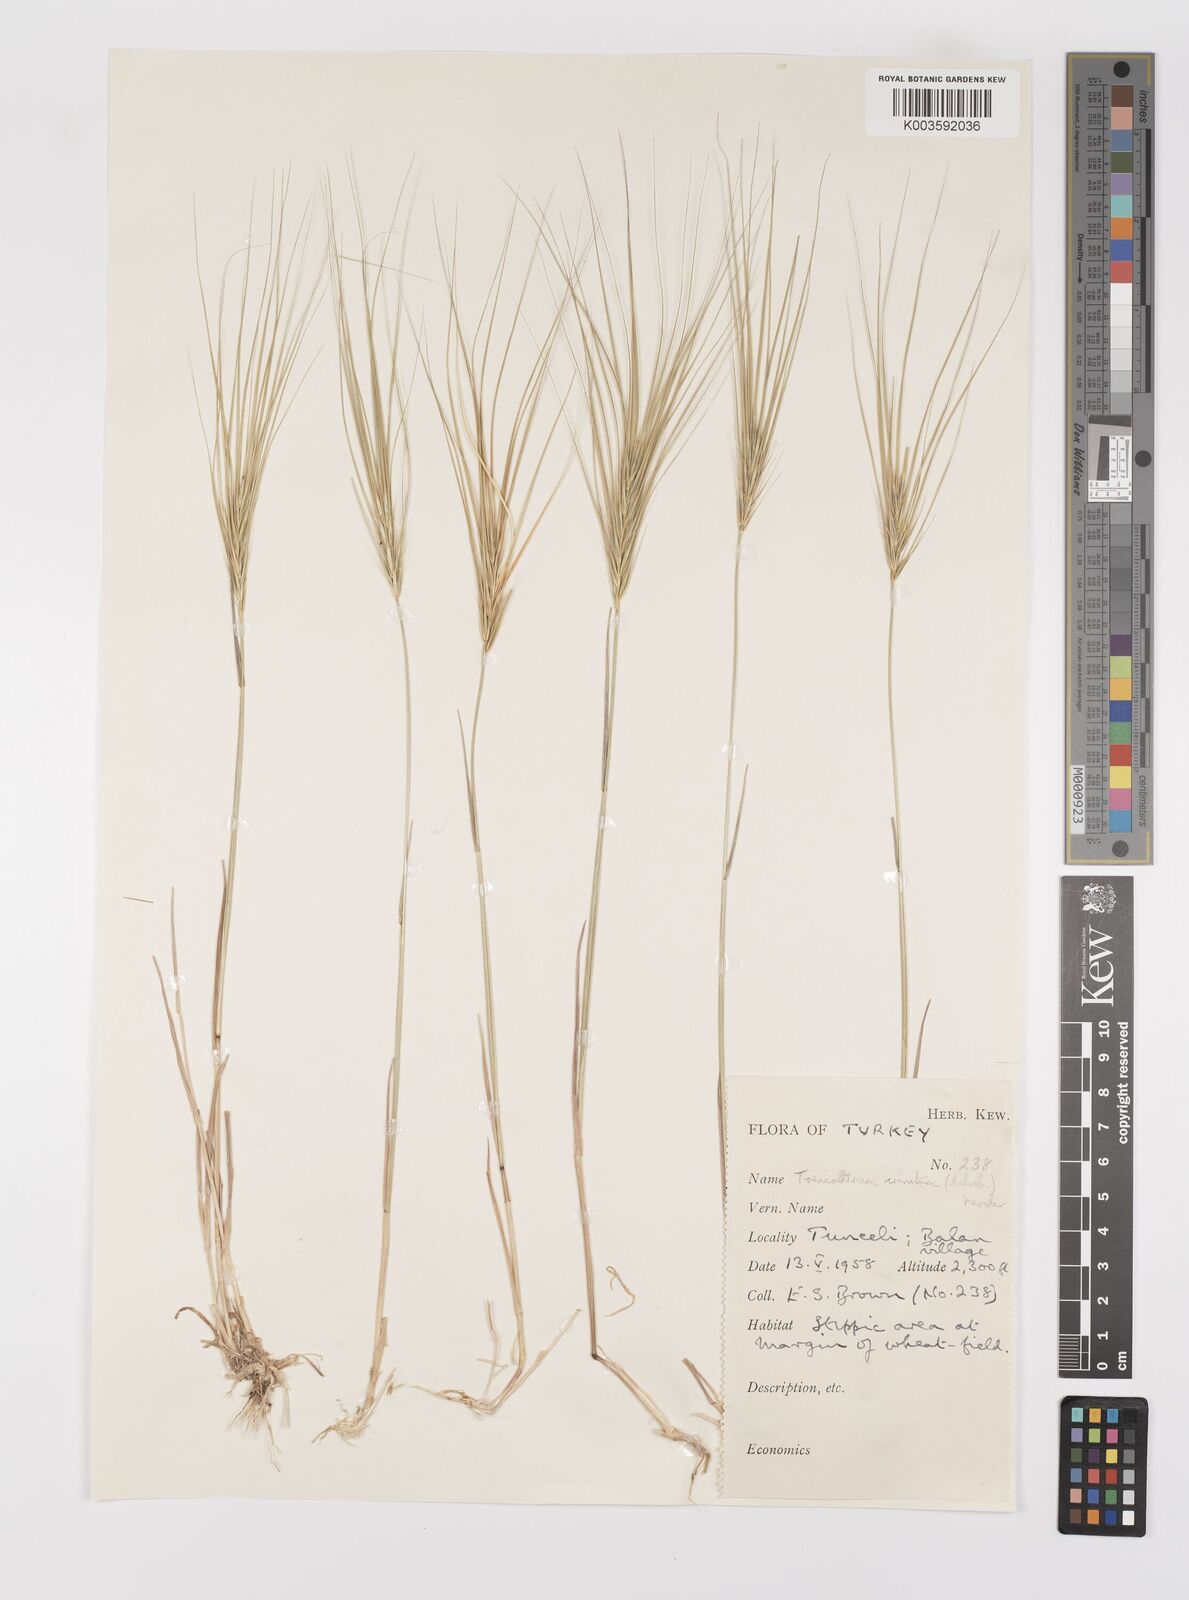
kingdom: Plantae
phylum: Tracheophyta
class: Liliopsida
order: Poales
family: Poaceae
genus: Taeniatherum
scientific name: Taeniatherum caput-medusae
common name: Medusahead
